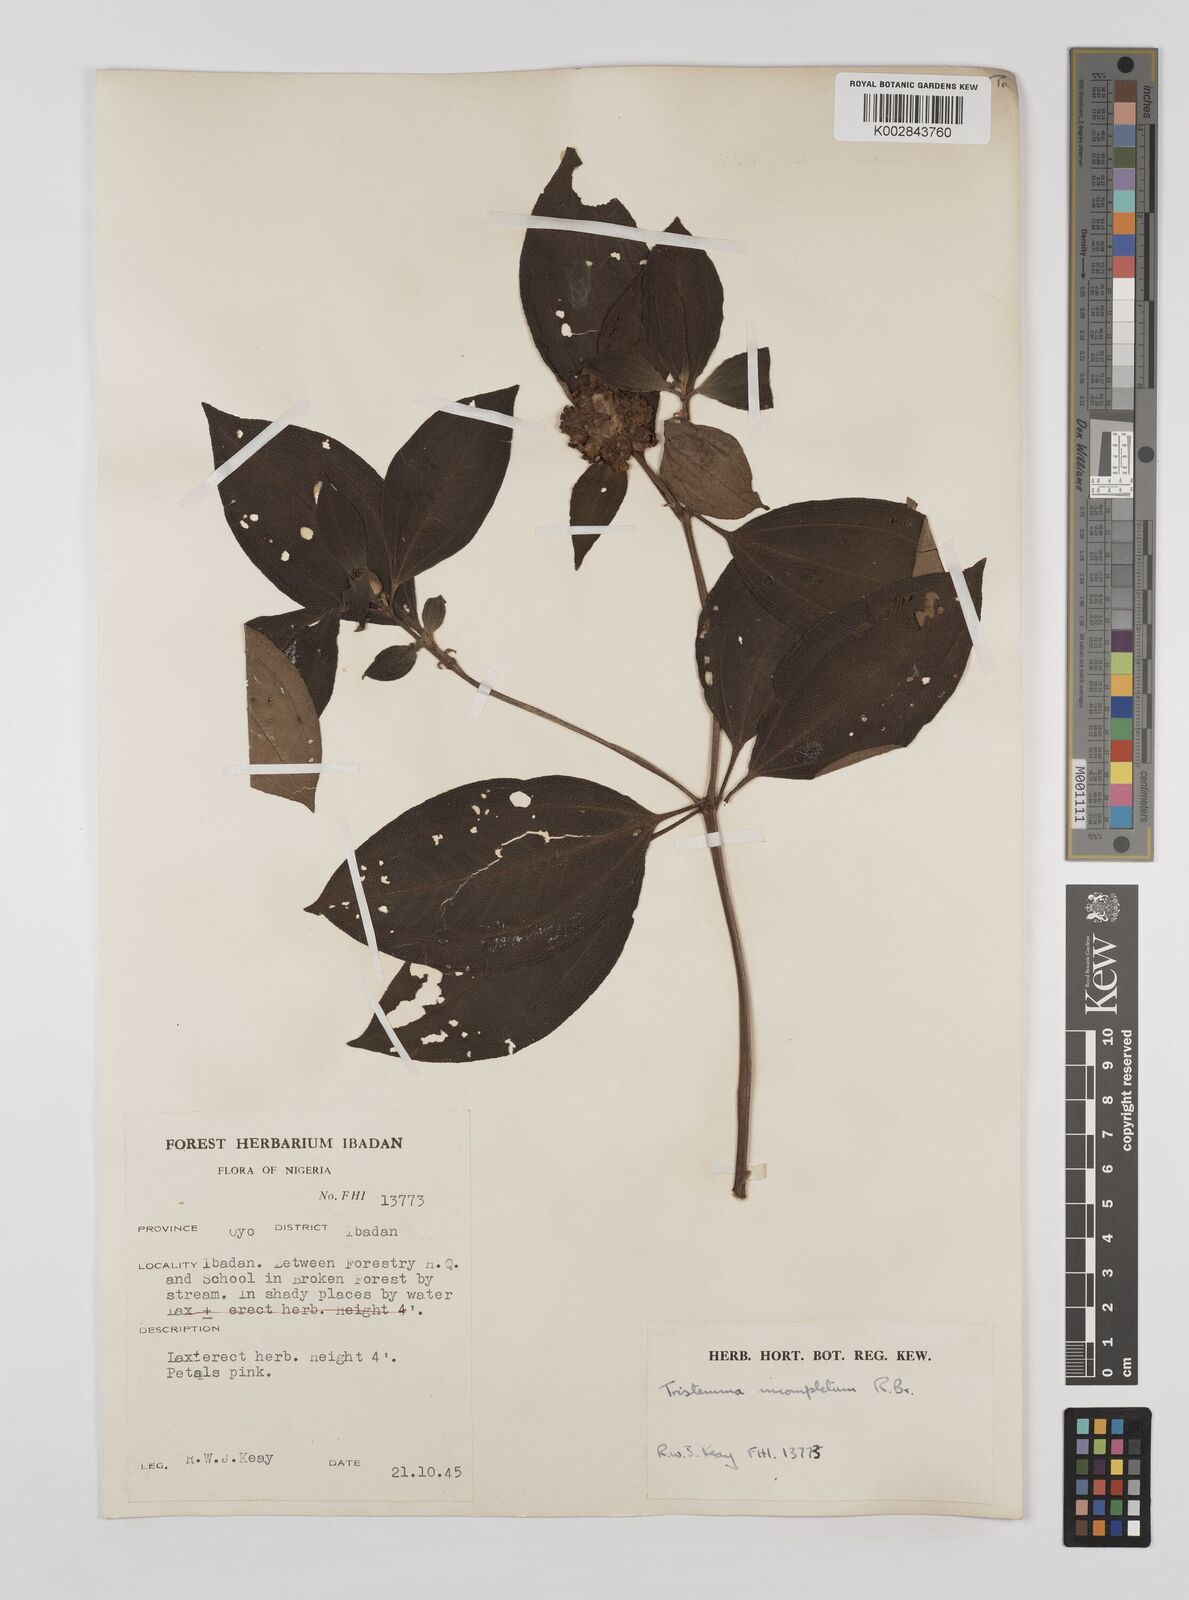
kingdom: Plantae
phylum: Tracheophyta
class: Magnoliopsida
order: Myrtales
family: Melastomataceae
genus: Tristemma
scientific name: Tristemma mauritianum
